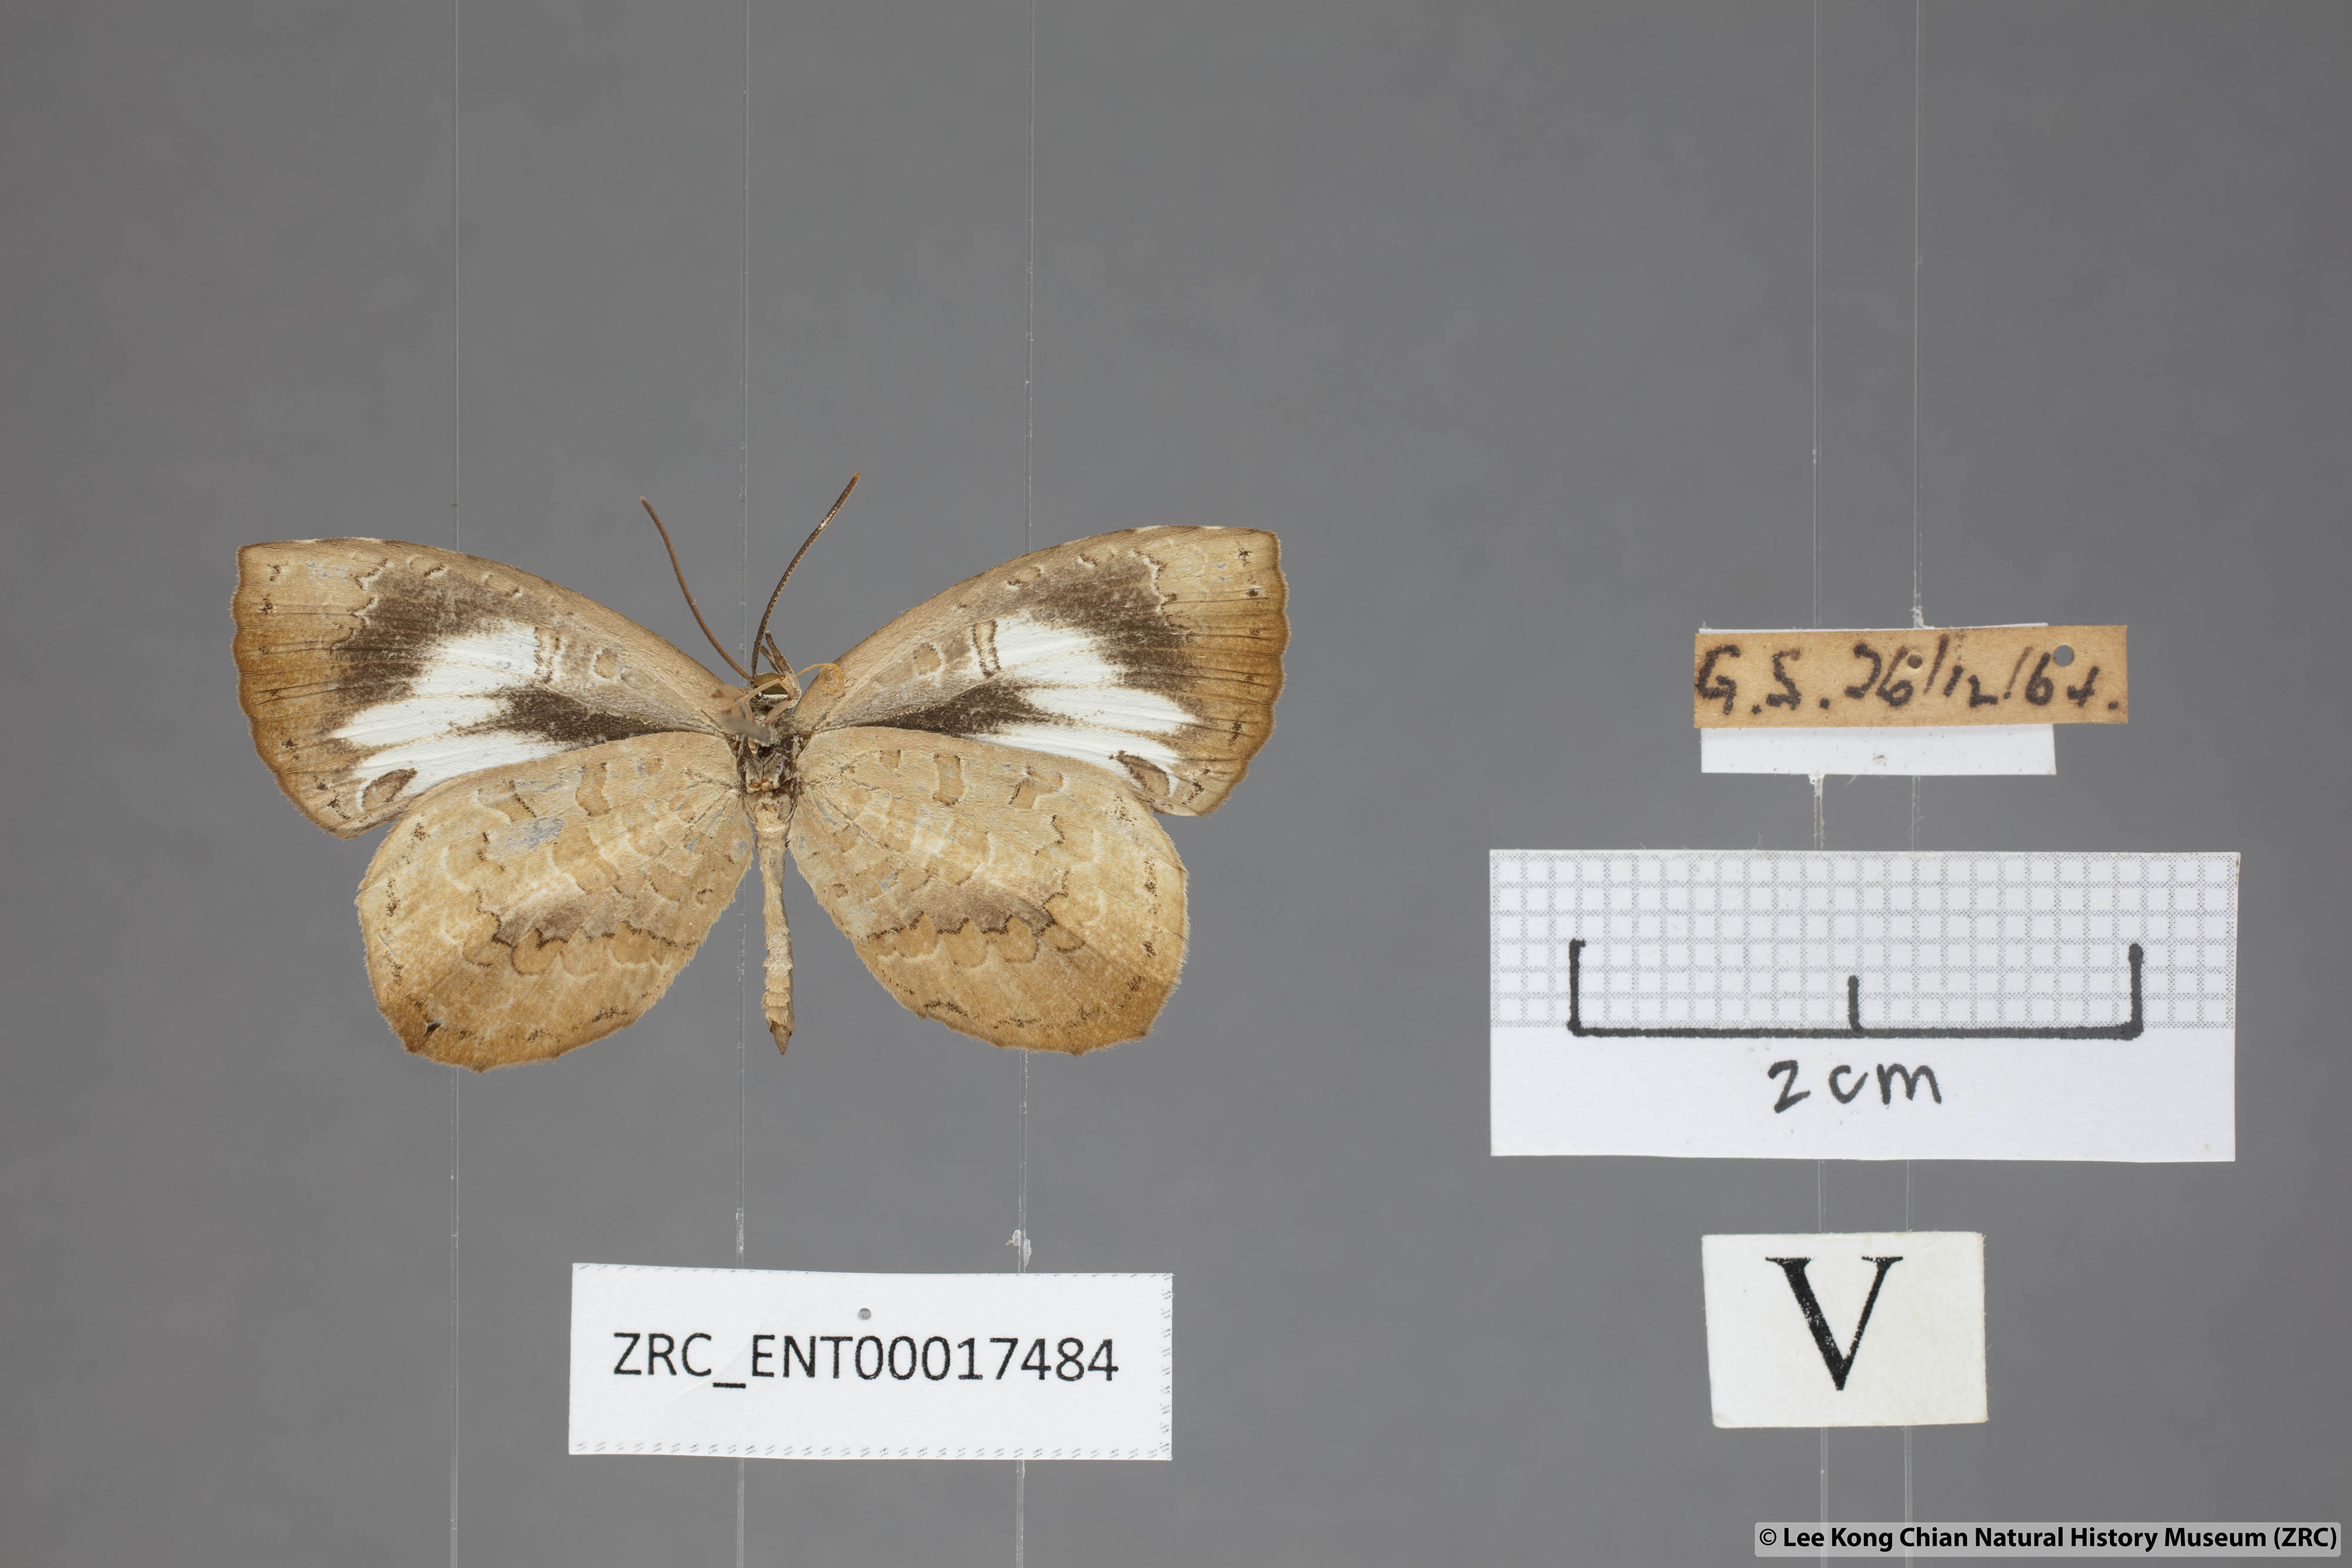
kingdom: Animalia
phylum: Arthropoda
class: Insecta
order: Lepidoptera
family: Lycaenidae
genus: Miletus
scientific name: Miletus symethus
